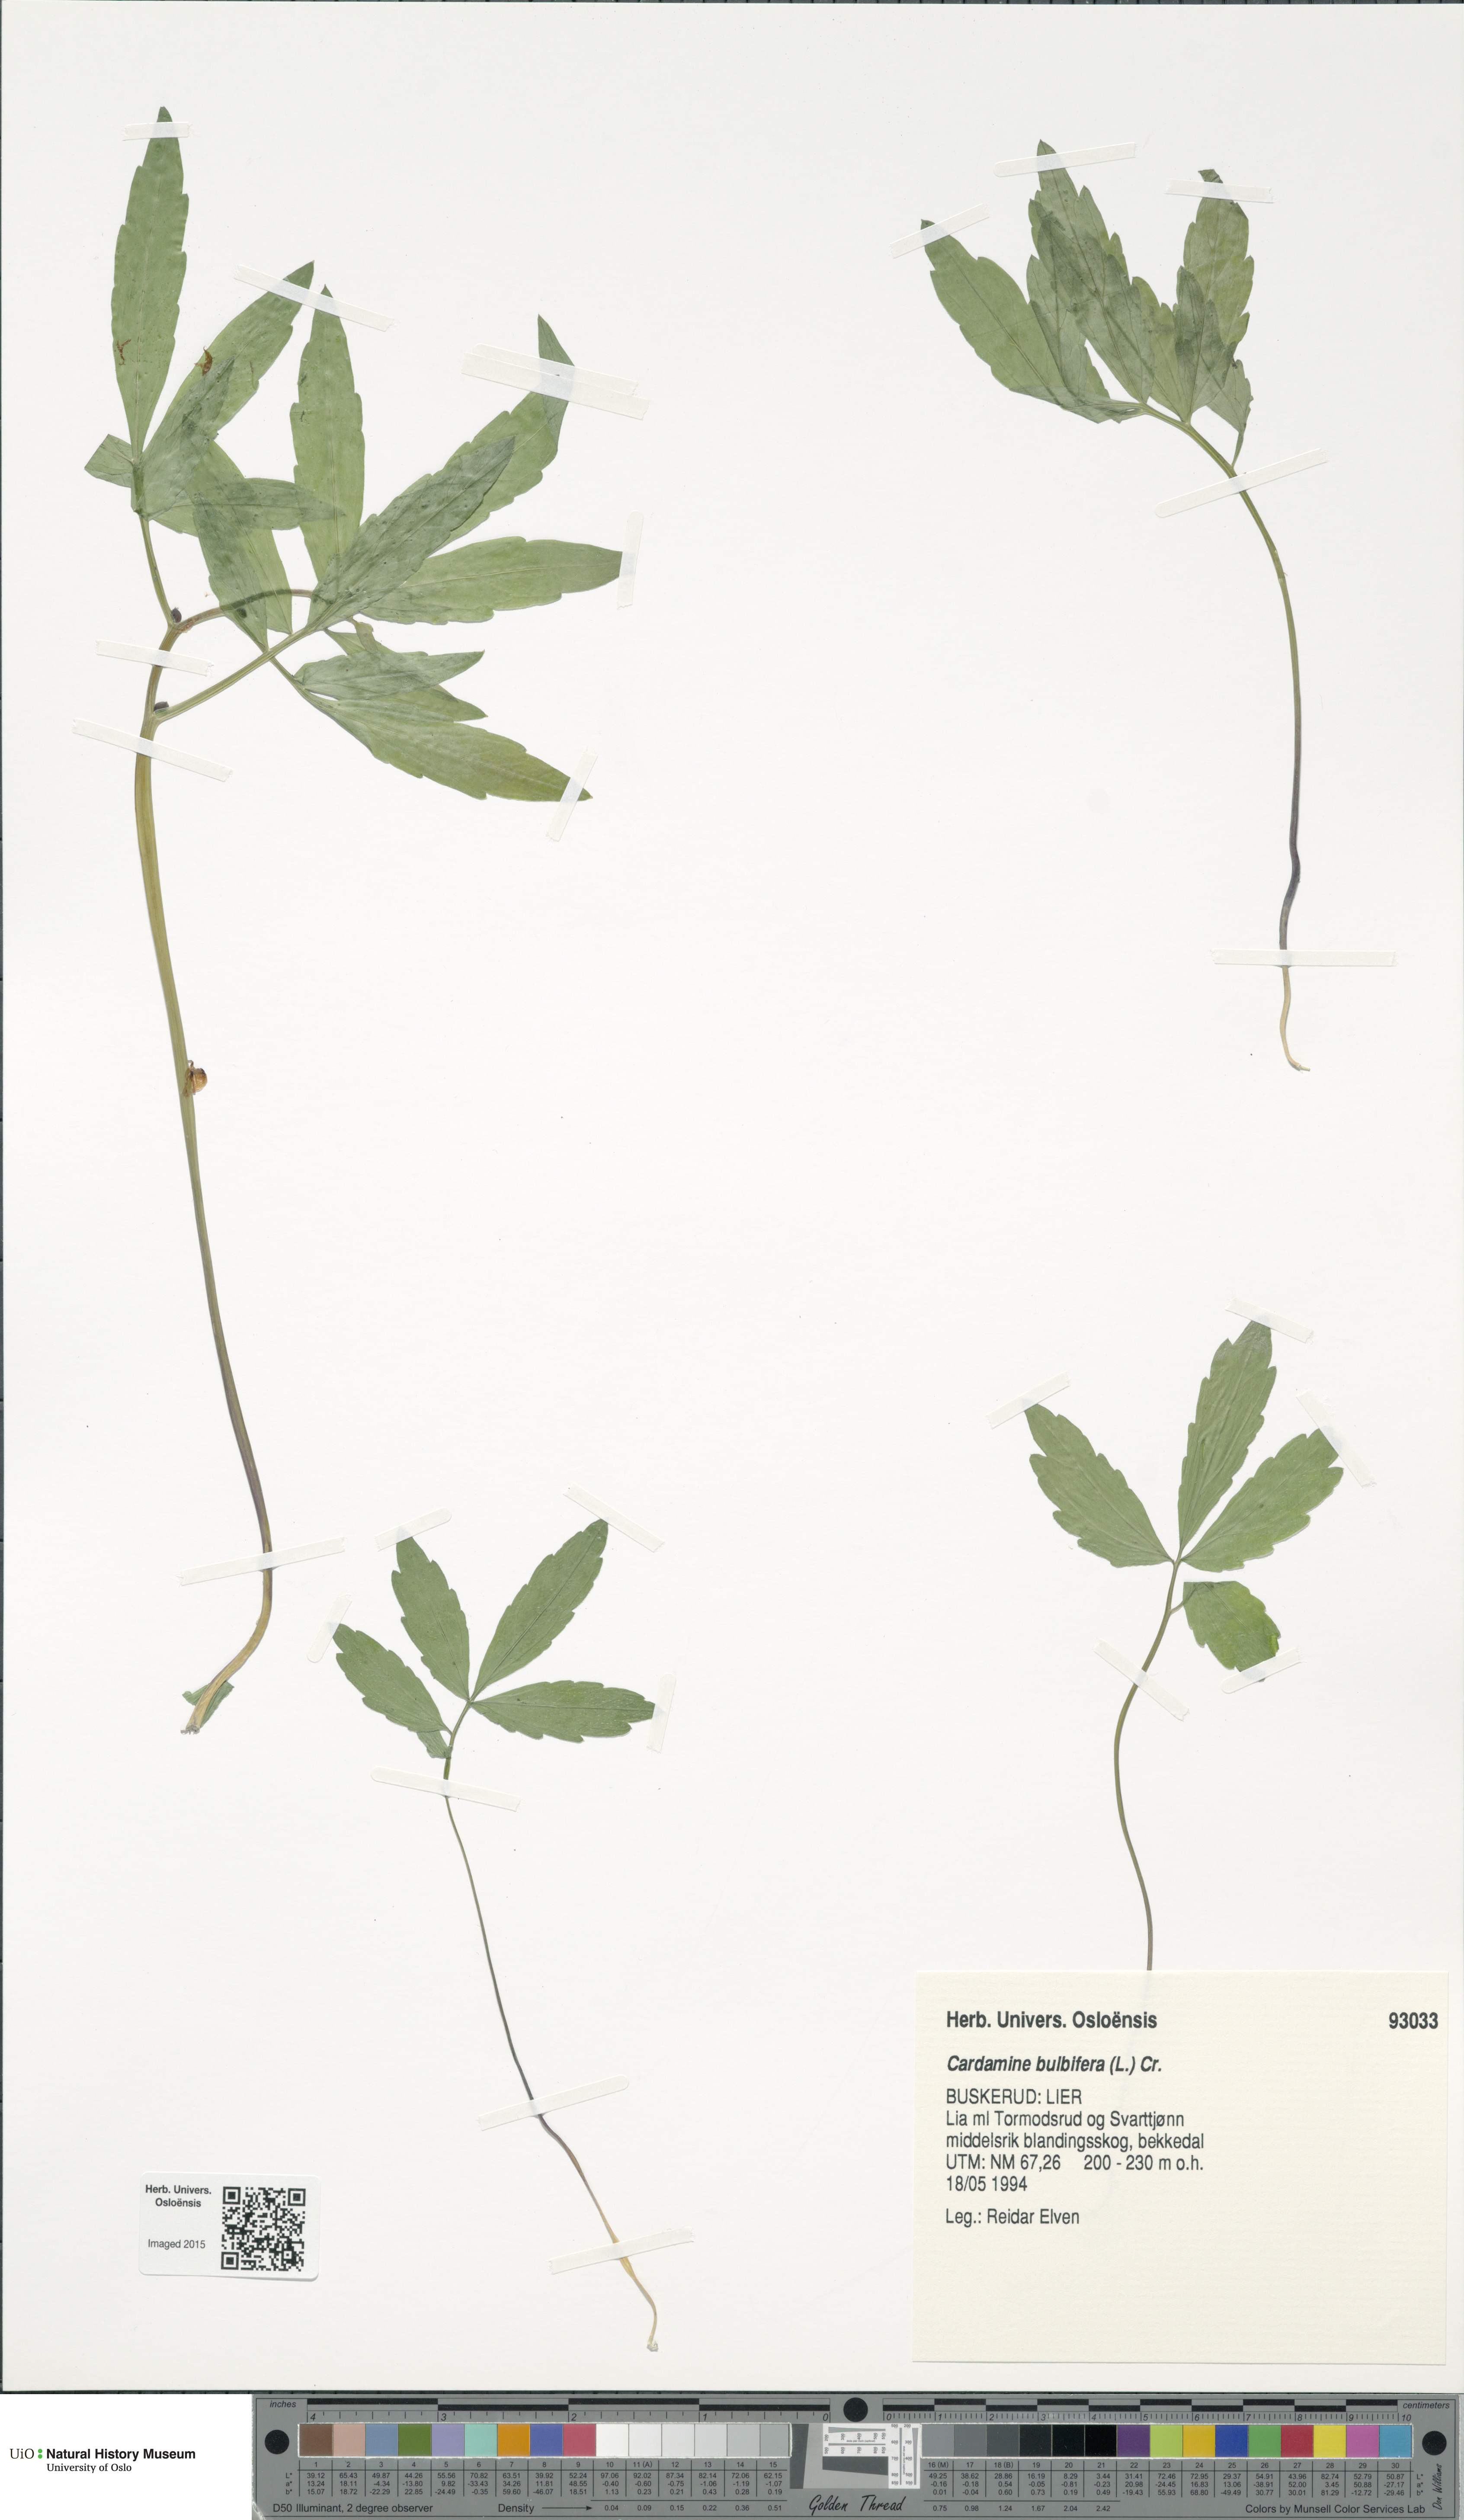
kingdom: Plantae
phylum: Tracheophyta
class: Magnoliopsida
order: Brassicales
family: Brassicaceae
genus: Cardamine
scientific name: Cardamine bulbifera
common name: Coralroot bittercress
